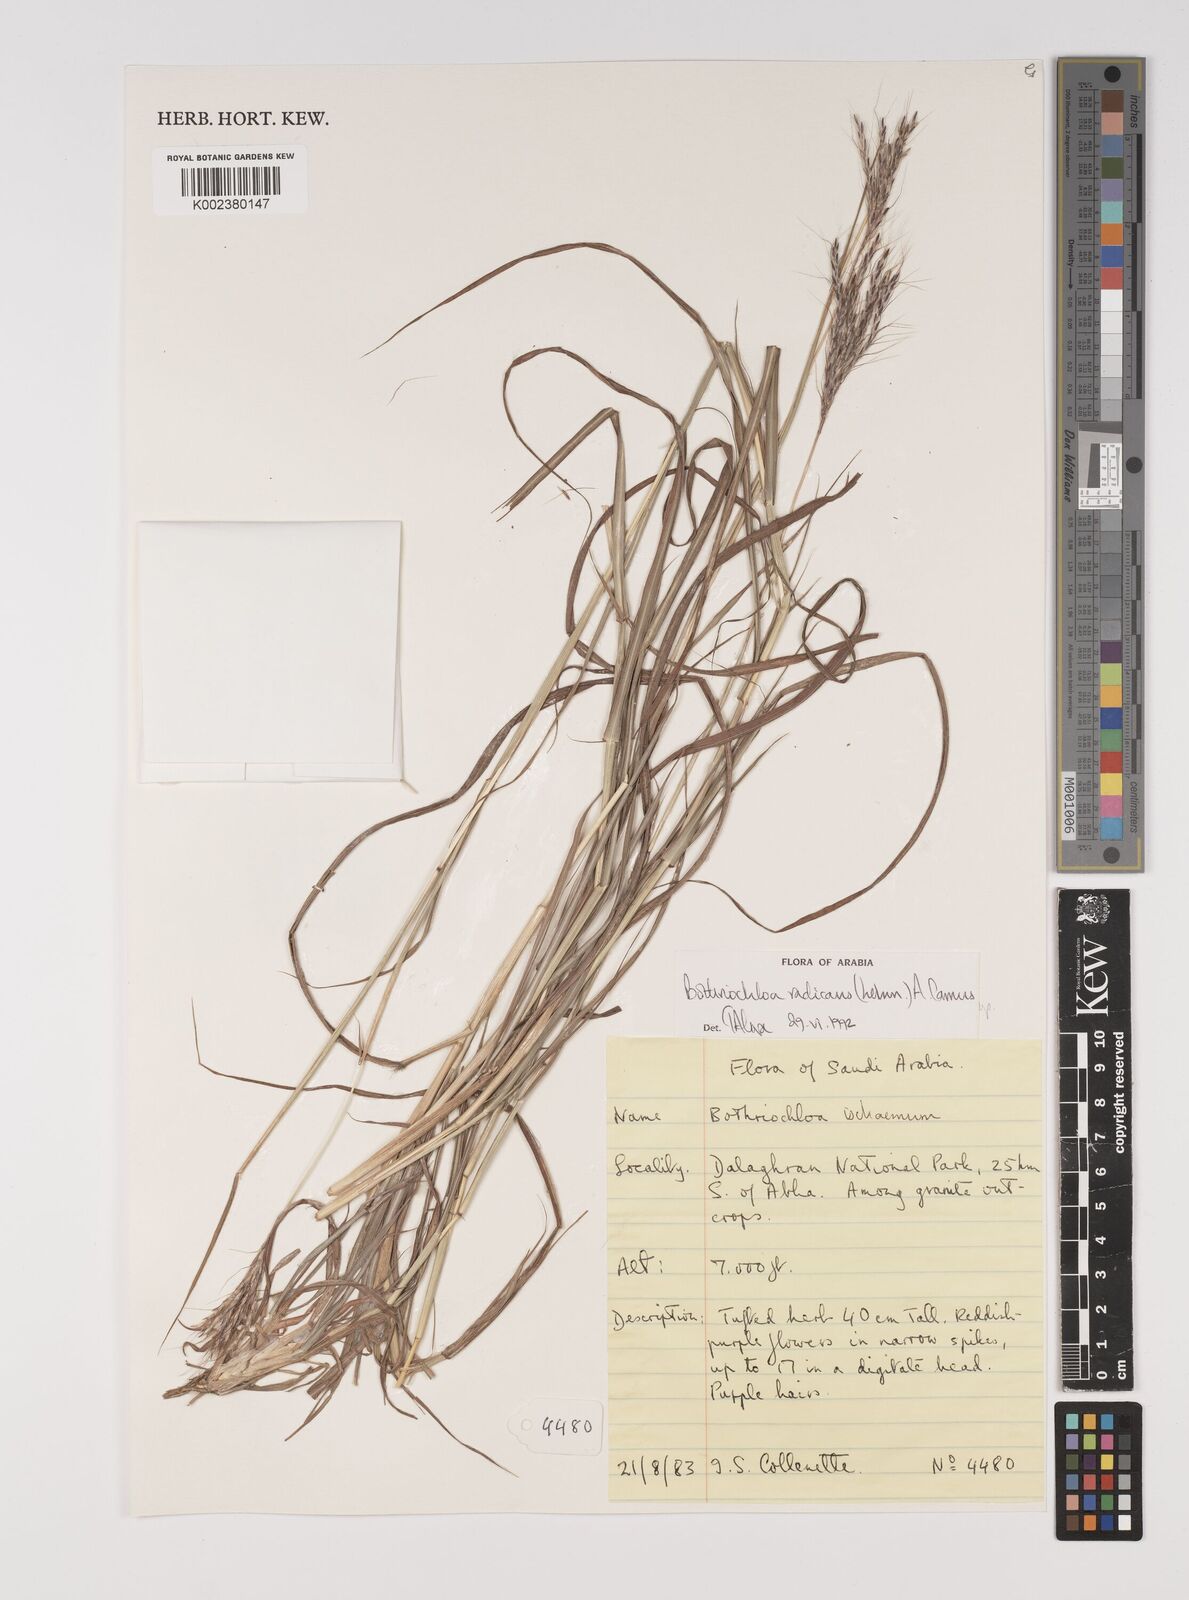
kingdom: Plantae
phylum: Tracheophyta
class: Liliopsida
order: Poales
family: Poaceae
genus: Bothriochloa
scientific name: Bothriochloa radicans
